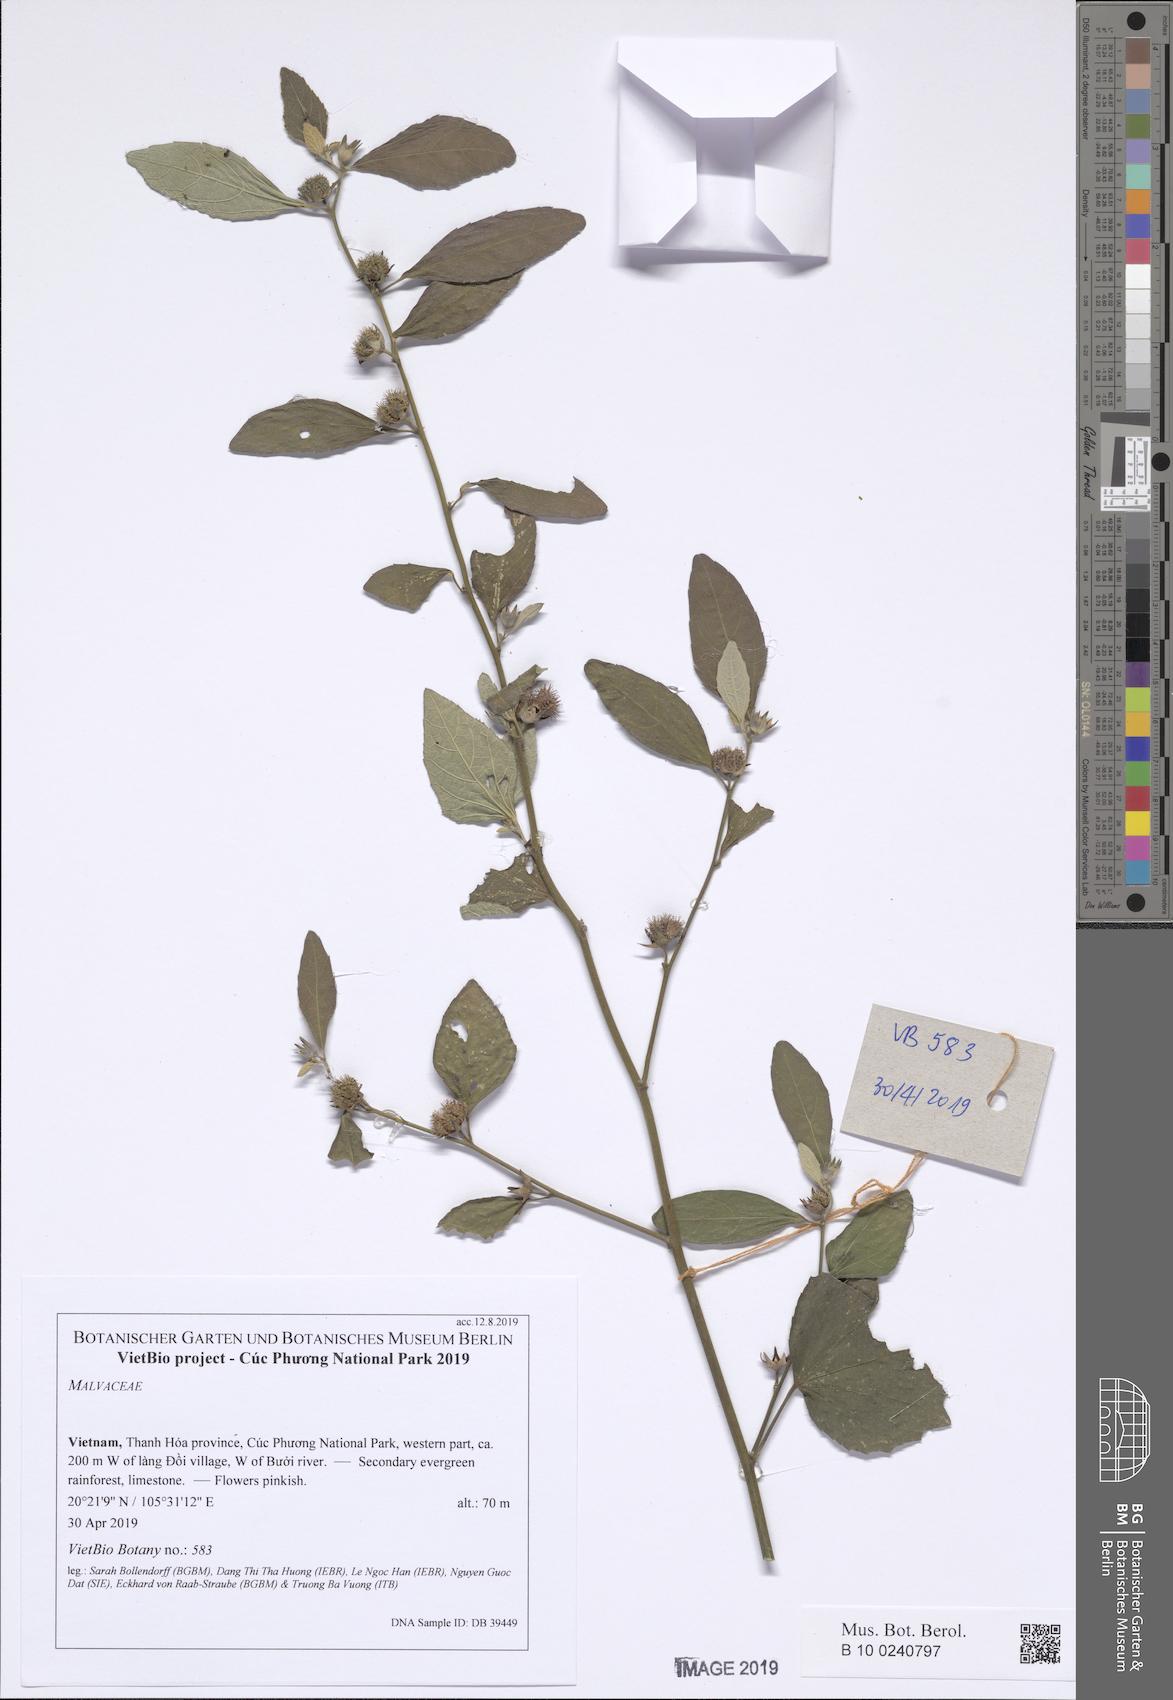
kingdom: Plantae
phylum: Tracheophyta
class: Magnoliopsida
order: Malvales
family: Malvaceae
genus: Urena
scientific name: Urena lobata
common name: Caesarweed
